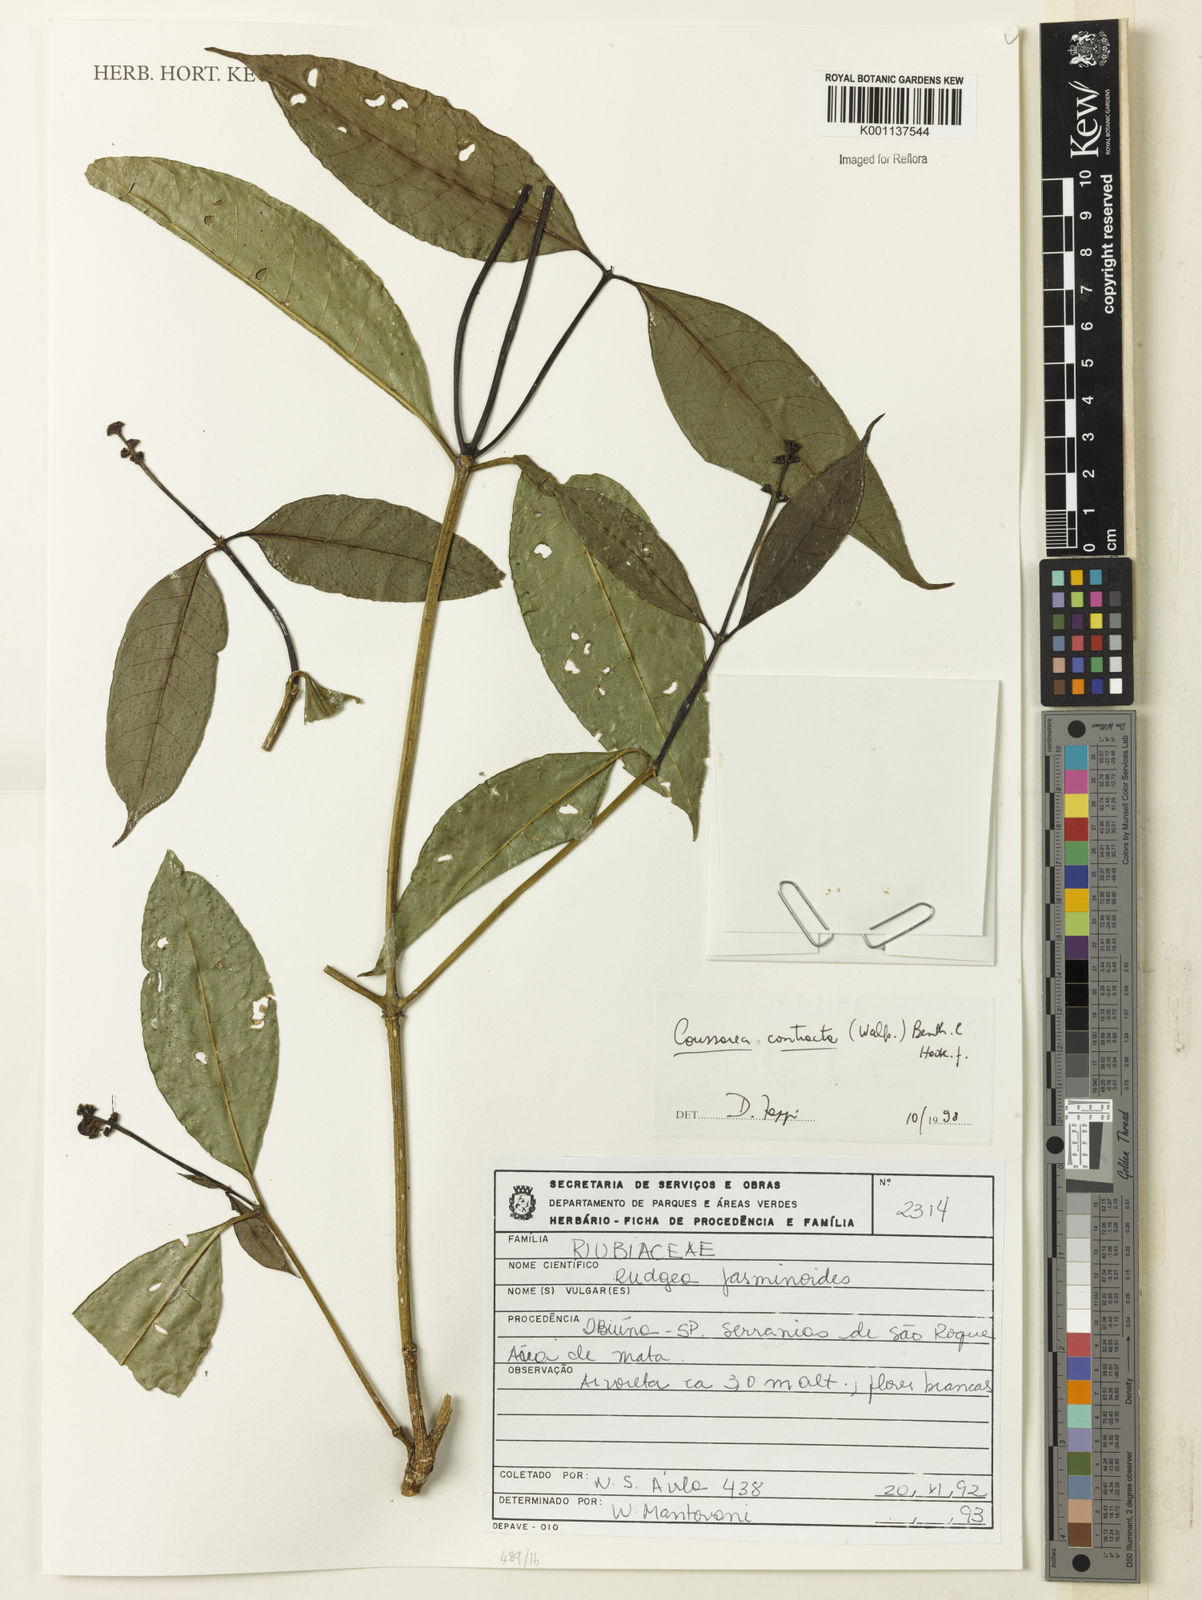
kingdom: Plantae
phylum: Tracheophyta
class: Magnoliopsida
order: Gentianales
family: Rubiaceae
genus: Coussarea
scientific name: Coussarea
